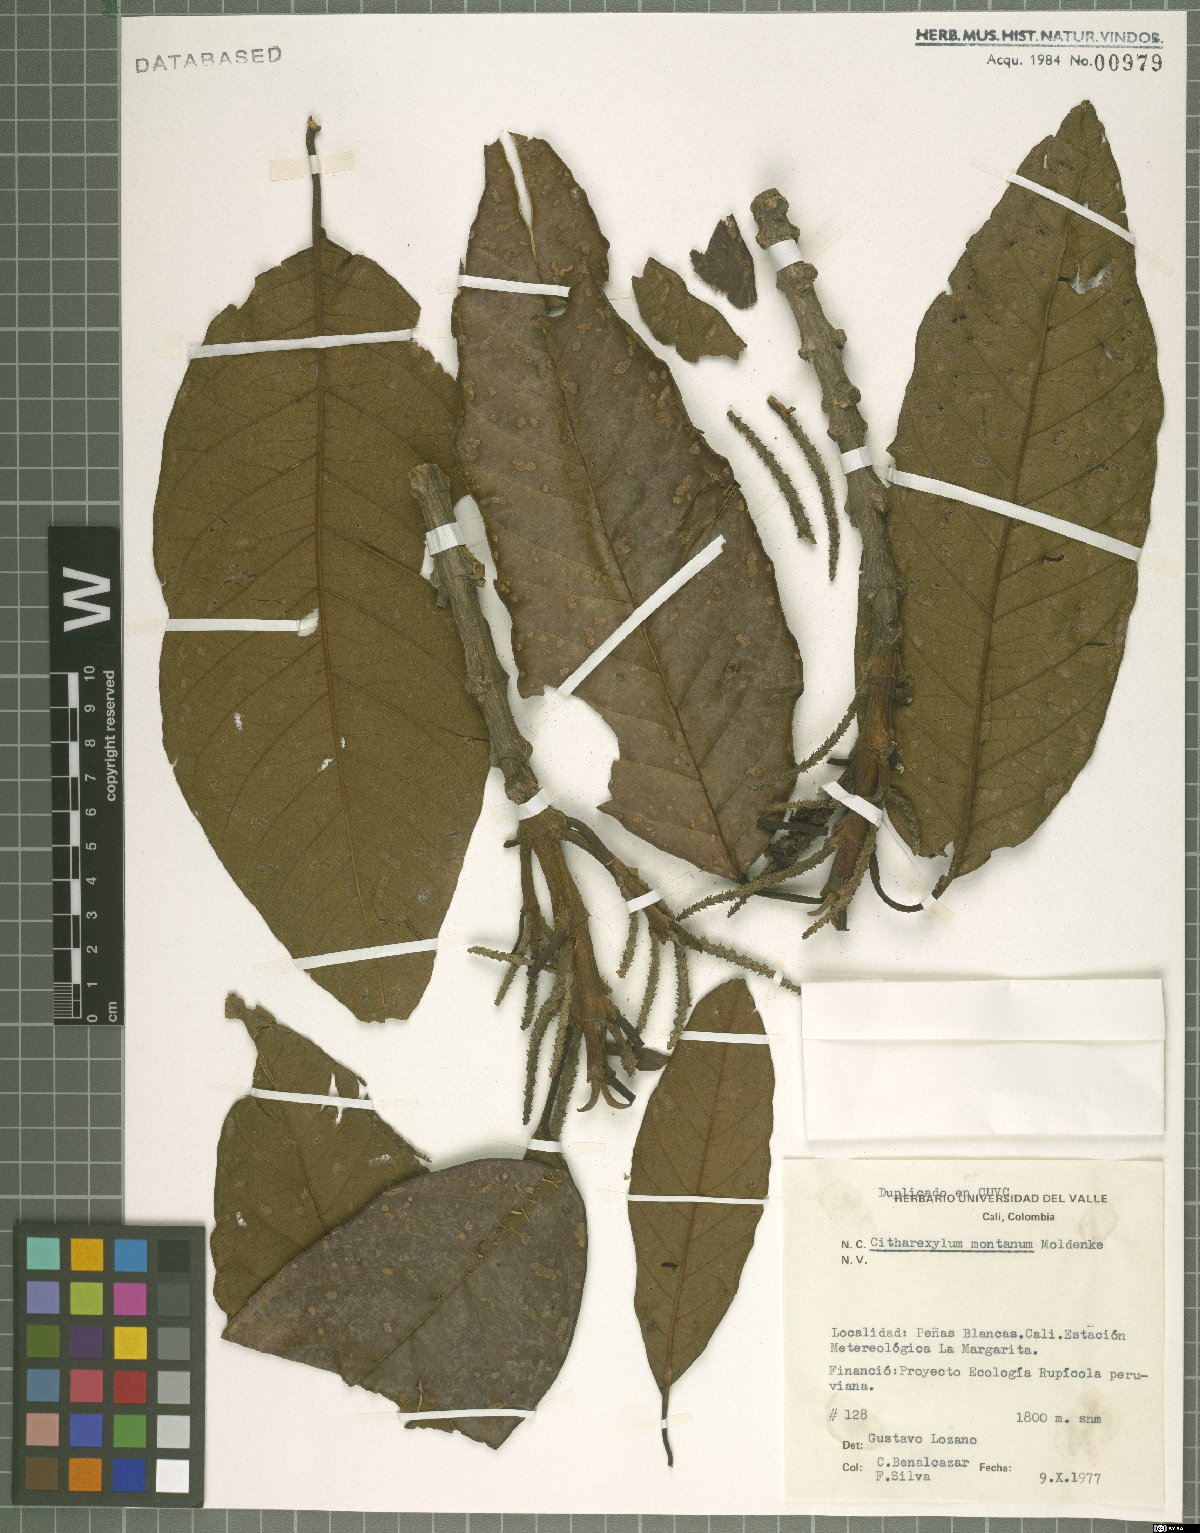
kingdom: Plantae
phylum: Tracheophyta
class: Magnoliopsida
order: Lamiales
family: Verbenaceae
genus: Citharexylum
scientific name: Citharexylum montanum
